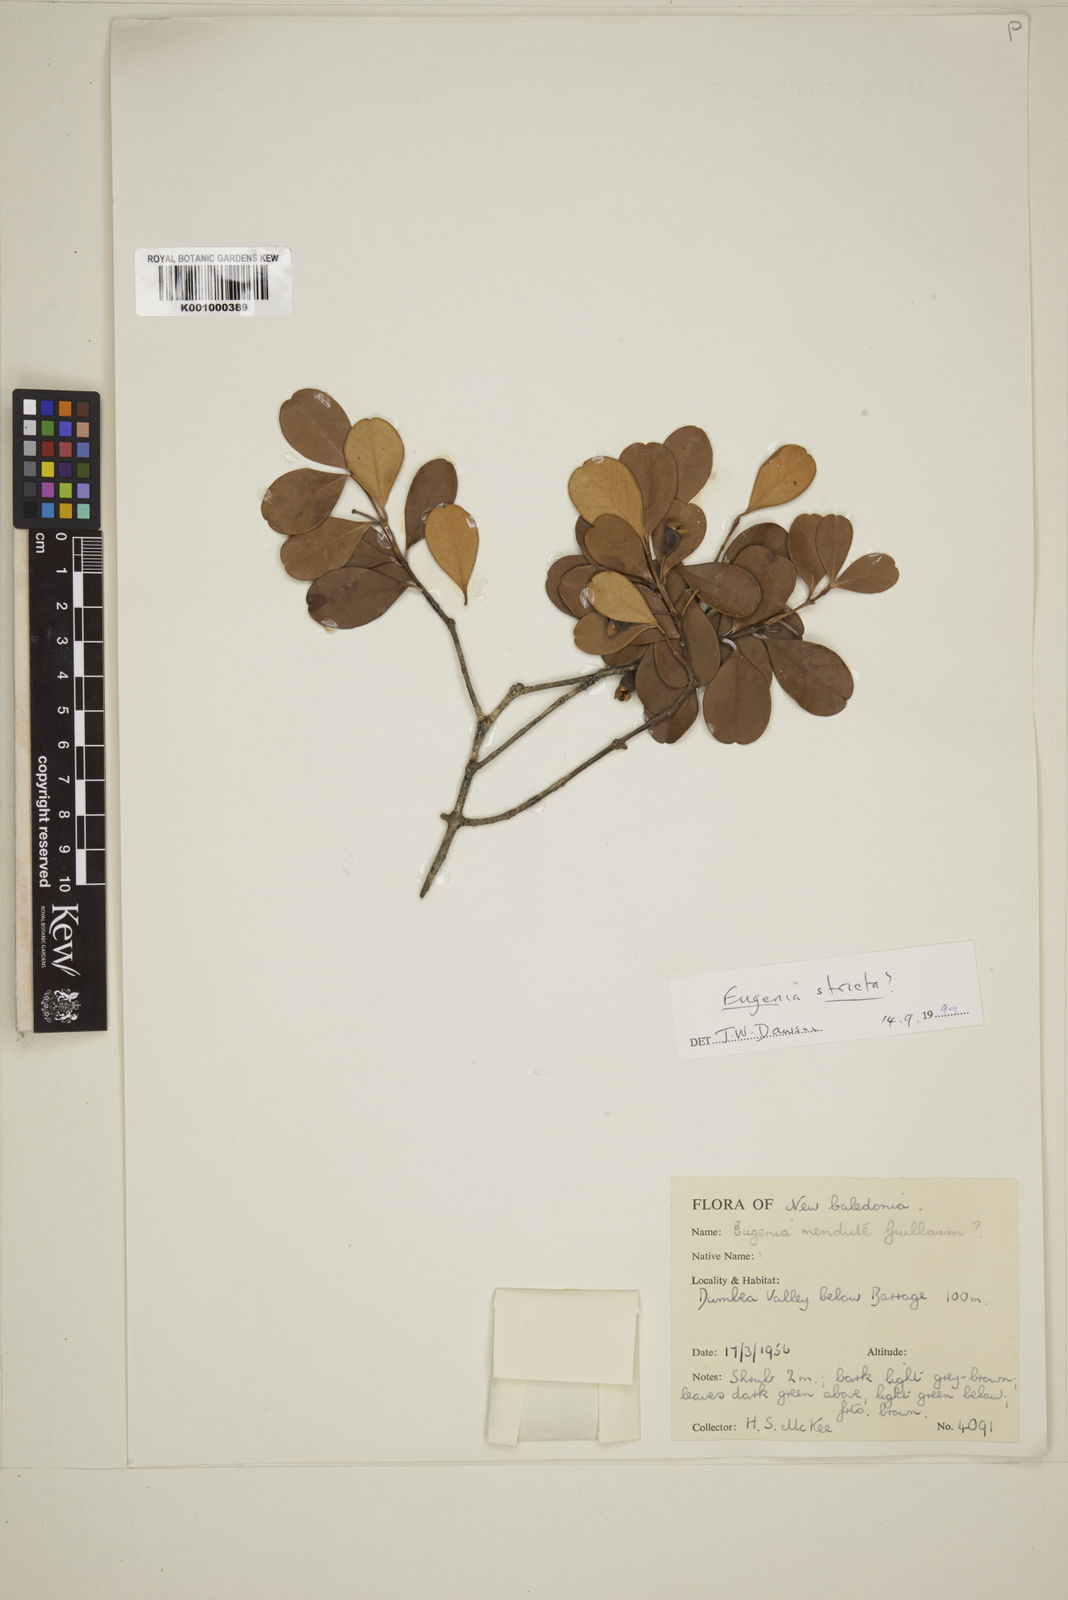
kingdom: Plantae
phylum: Tracheophyta
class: Magnoliopsida
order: Myrtales
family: Myrtaceae
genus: Austromyrtus
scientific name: Austromyrtus mendute
